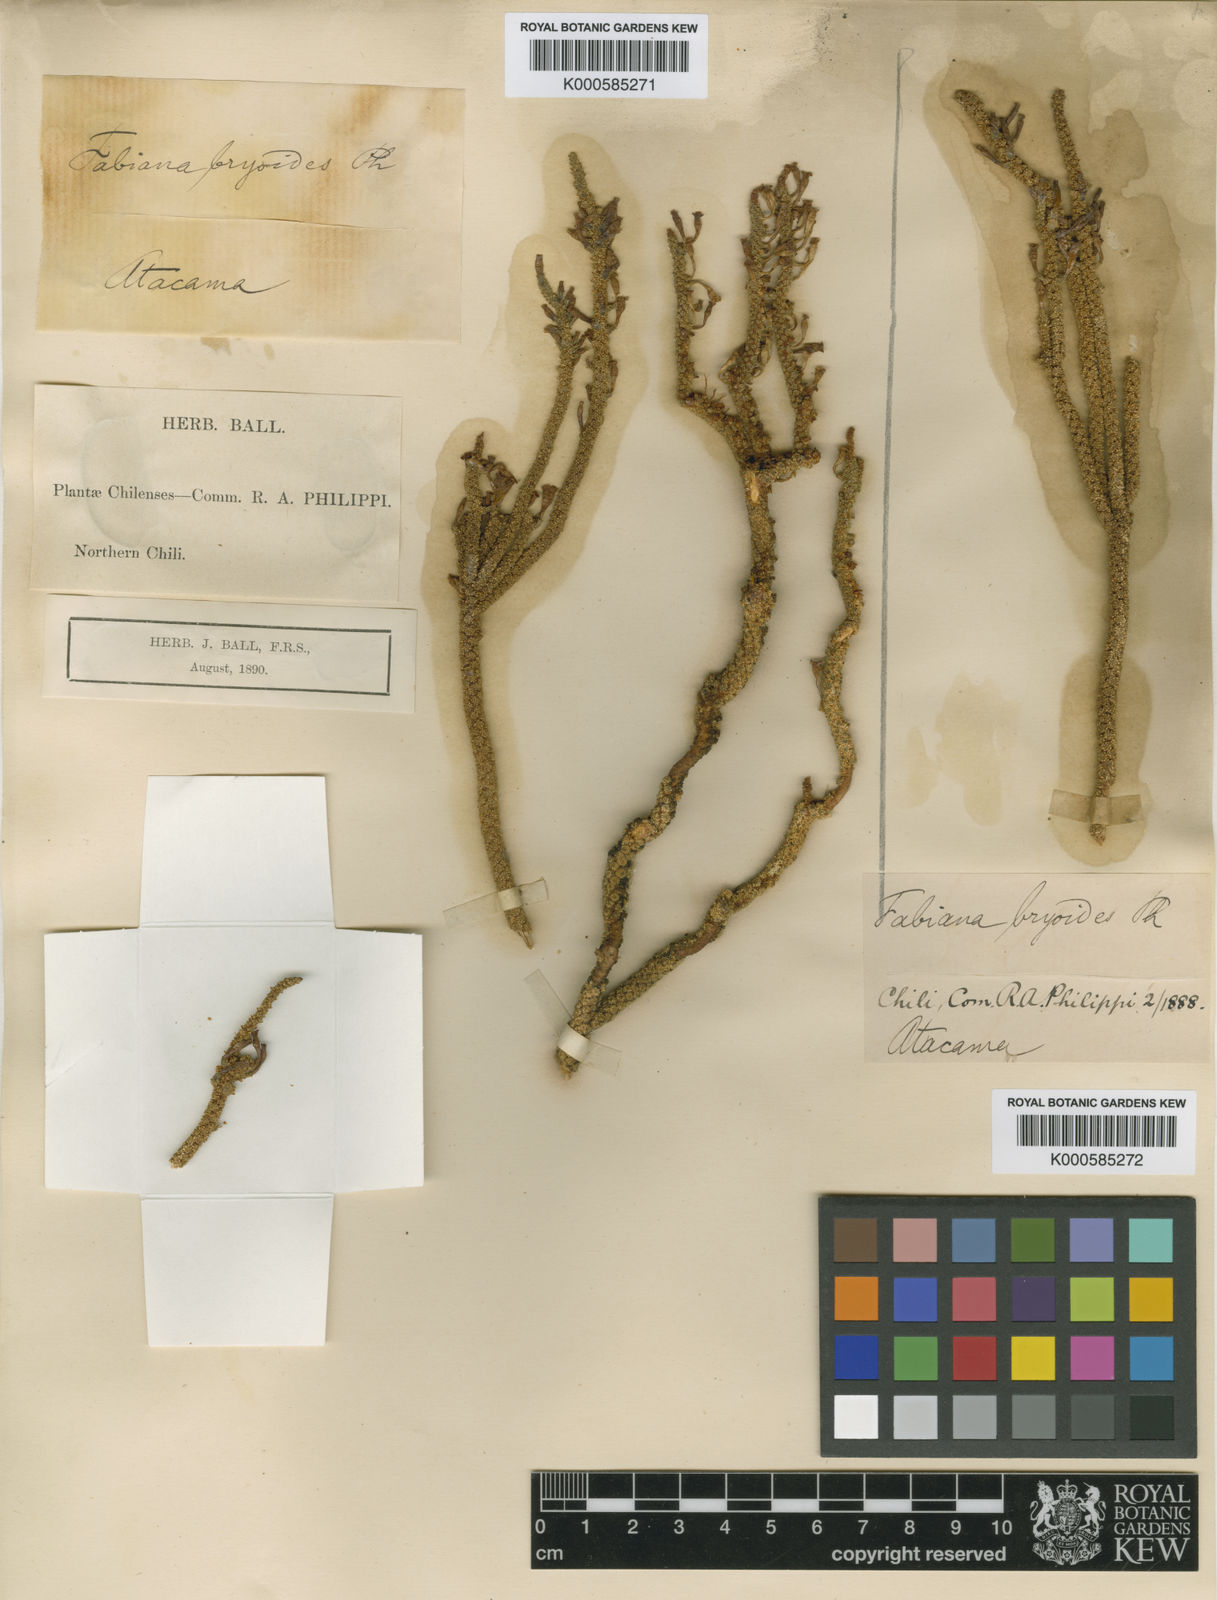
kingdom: Plantae
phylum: Tracheophyta
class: Magnoliopsida
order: Solanales
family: Solanaceae
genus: Fabiana
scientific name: Fabiana bryoides
